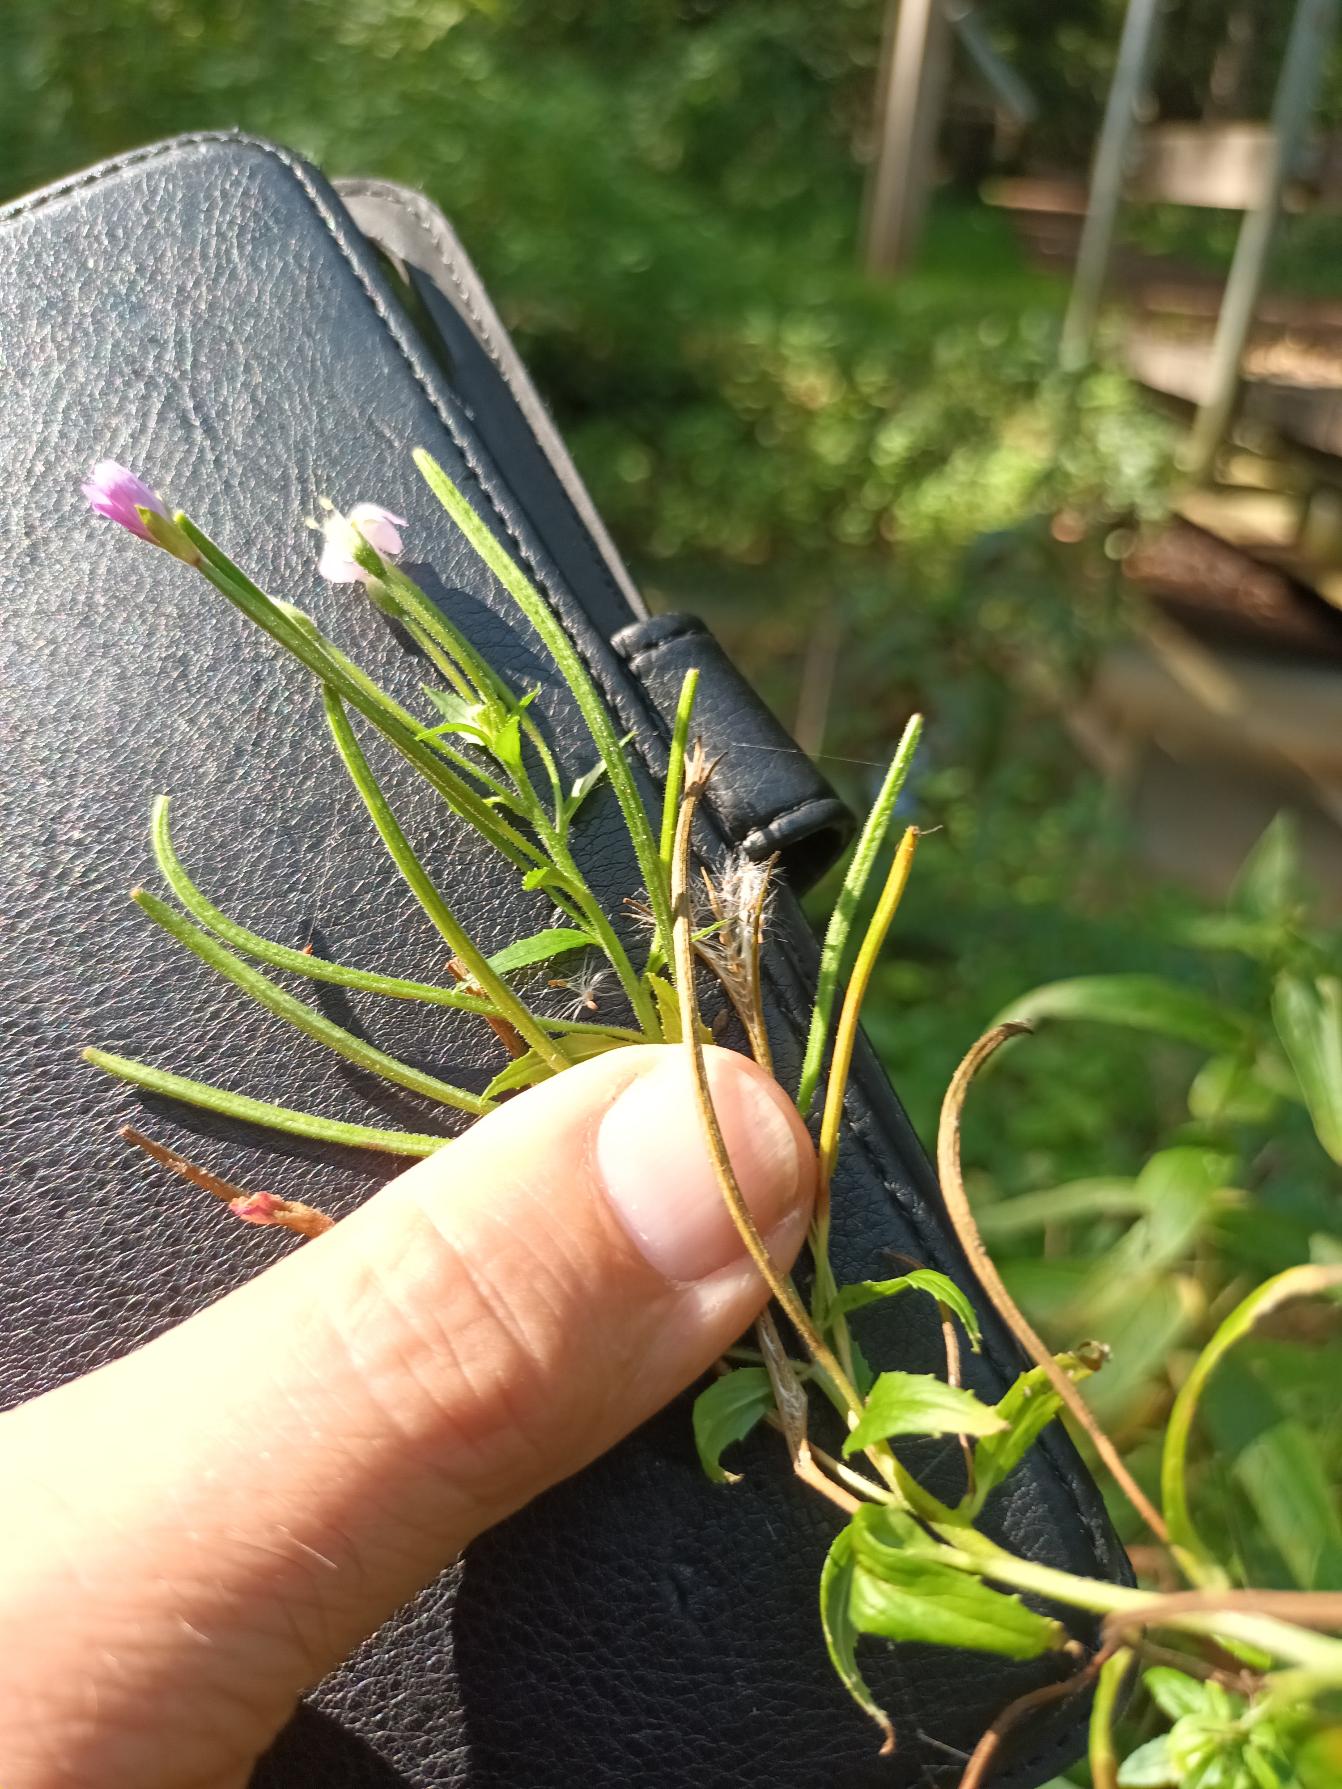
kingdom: Plantae
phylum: Tracheophyta
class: Magnoliopsida
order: Myrtales
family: Onagraceae
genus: Epilobium
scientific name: Epilobium ciliatum
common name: Kirtlet dueurt
